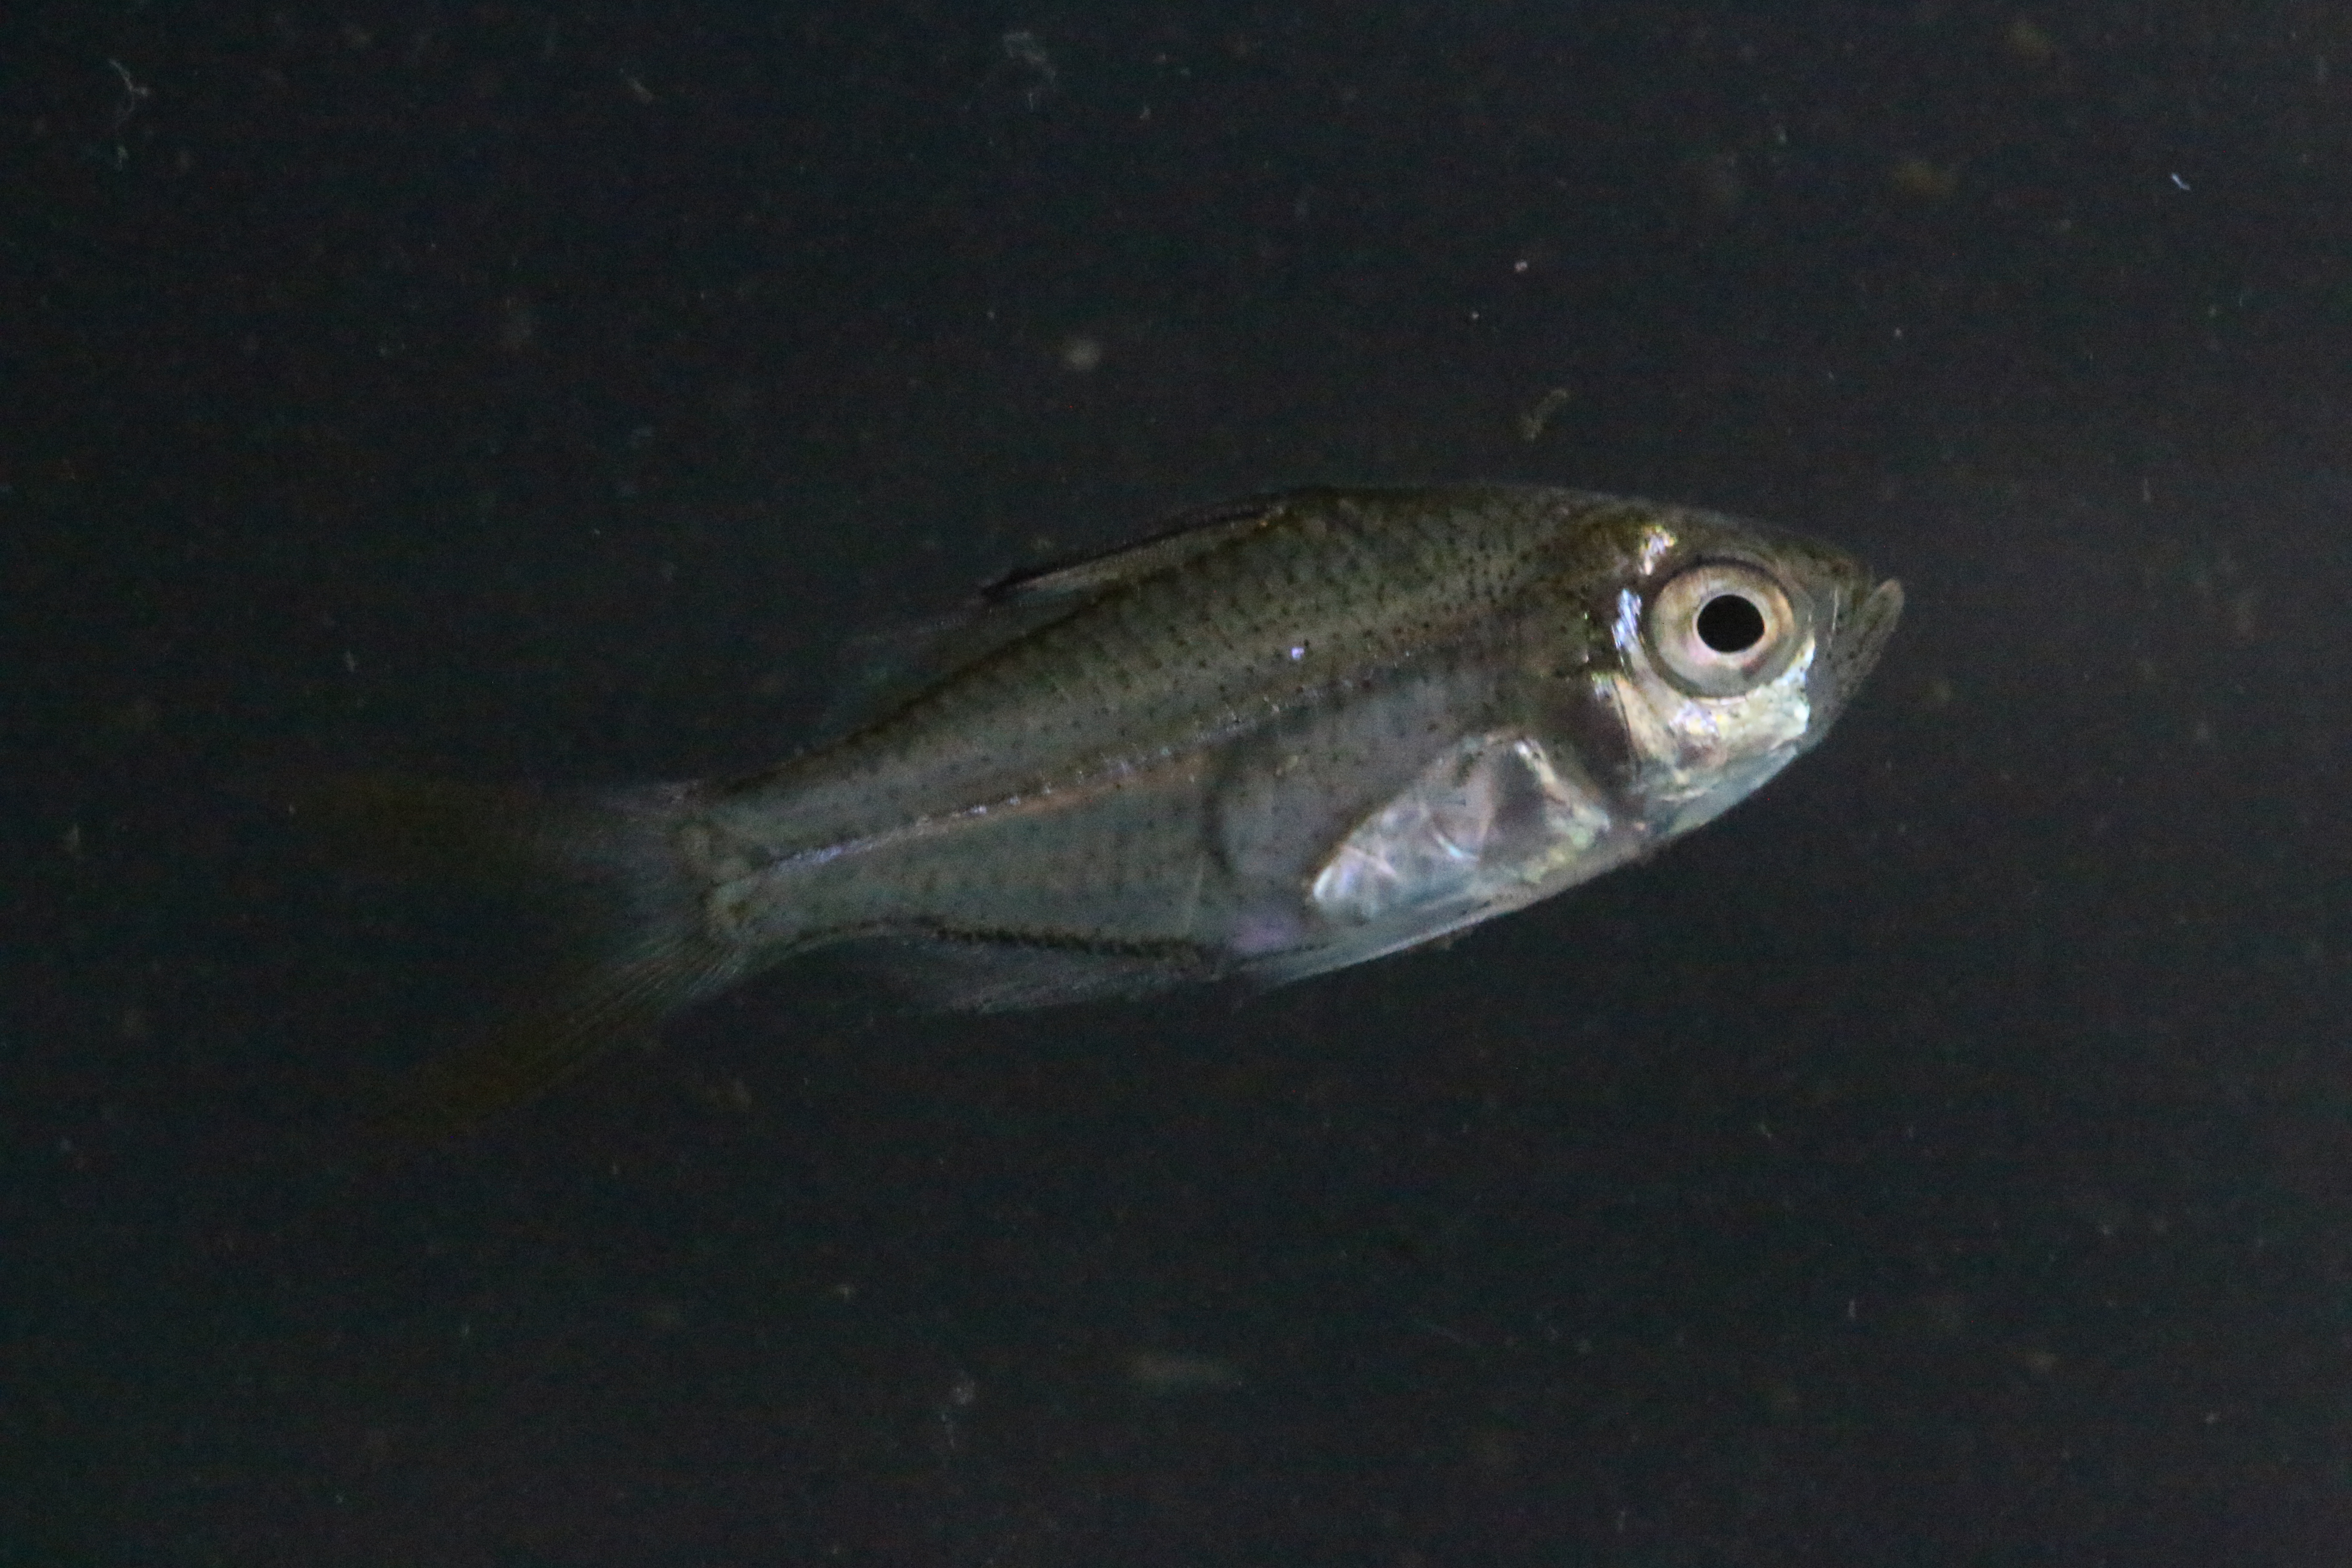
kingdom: Animalia
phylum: Chordata
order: Perciformes
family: Ambassidae
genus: Ambassis
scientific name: Ambassis natalensis
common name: Slender glassy
